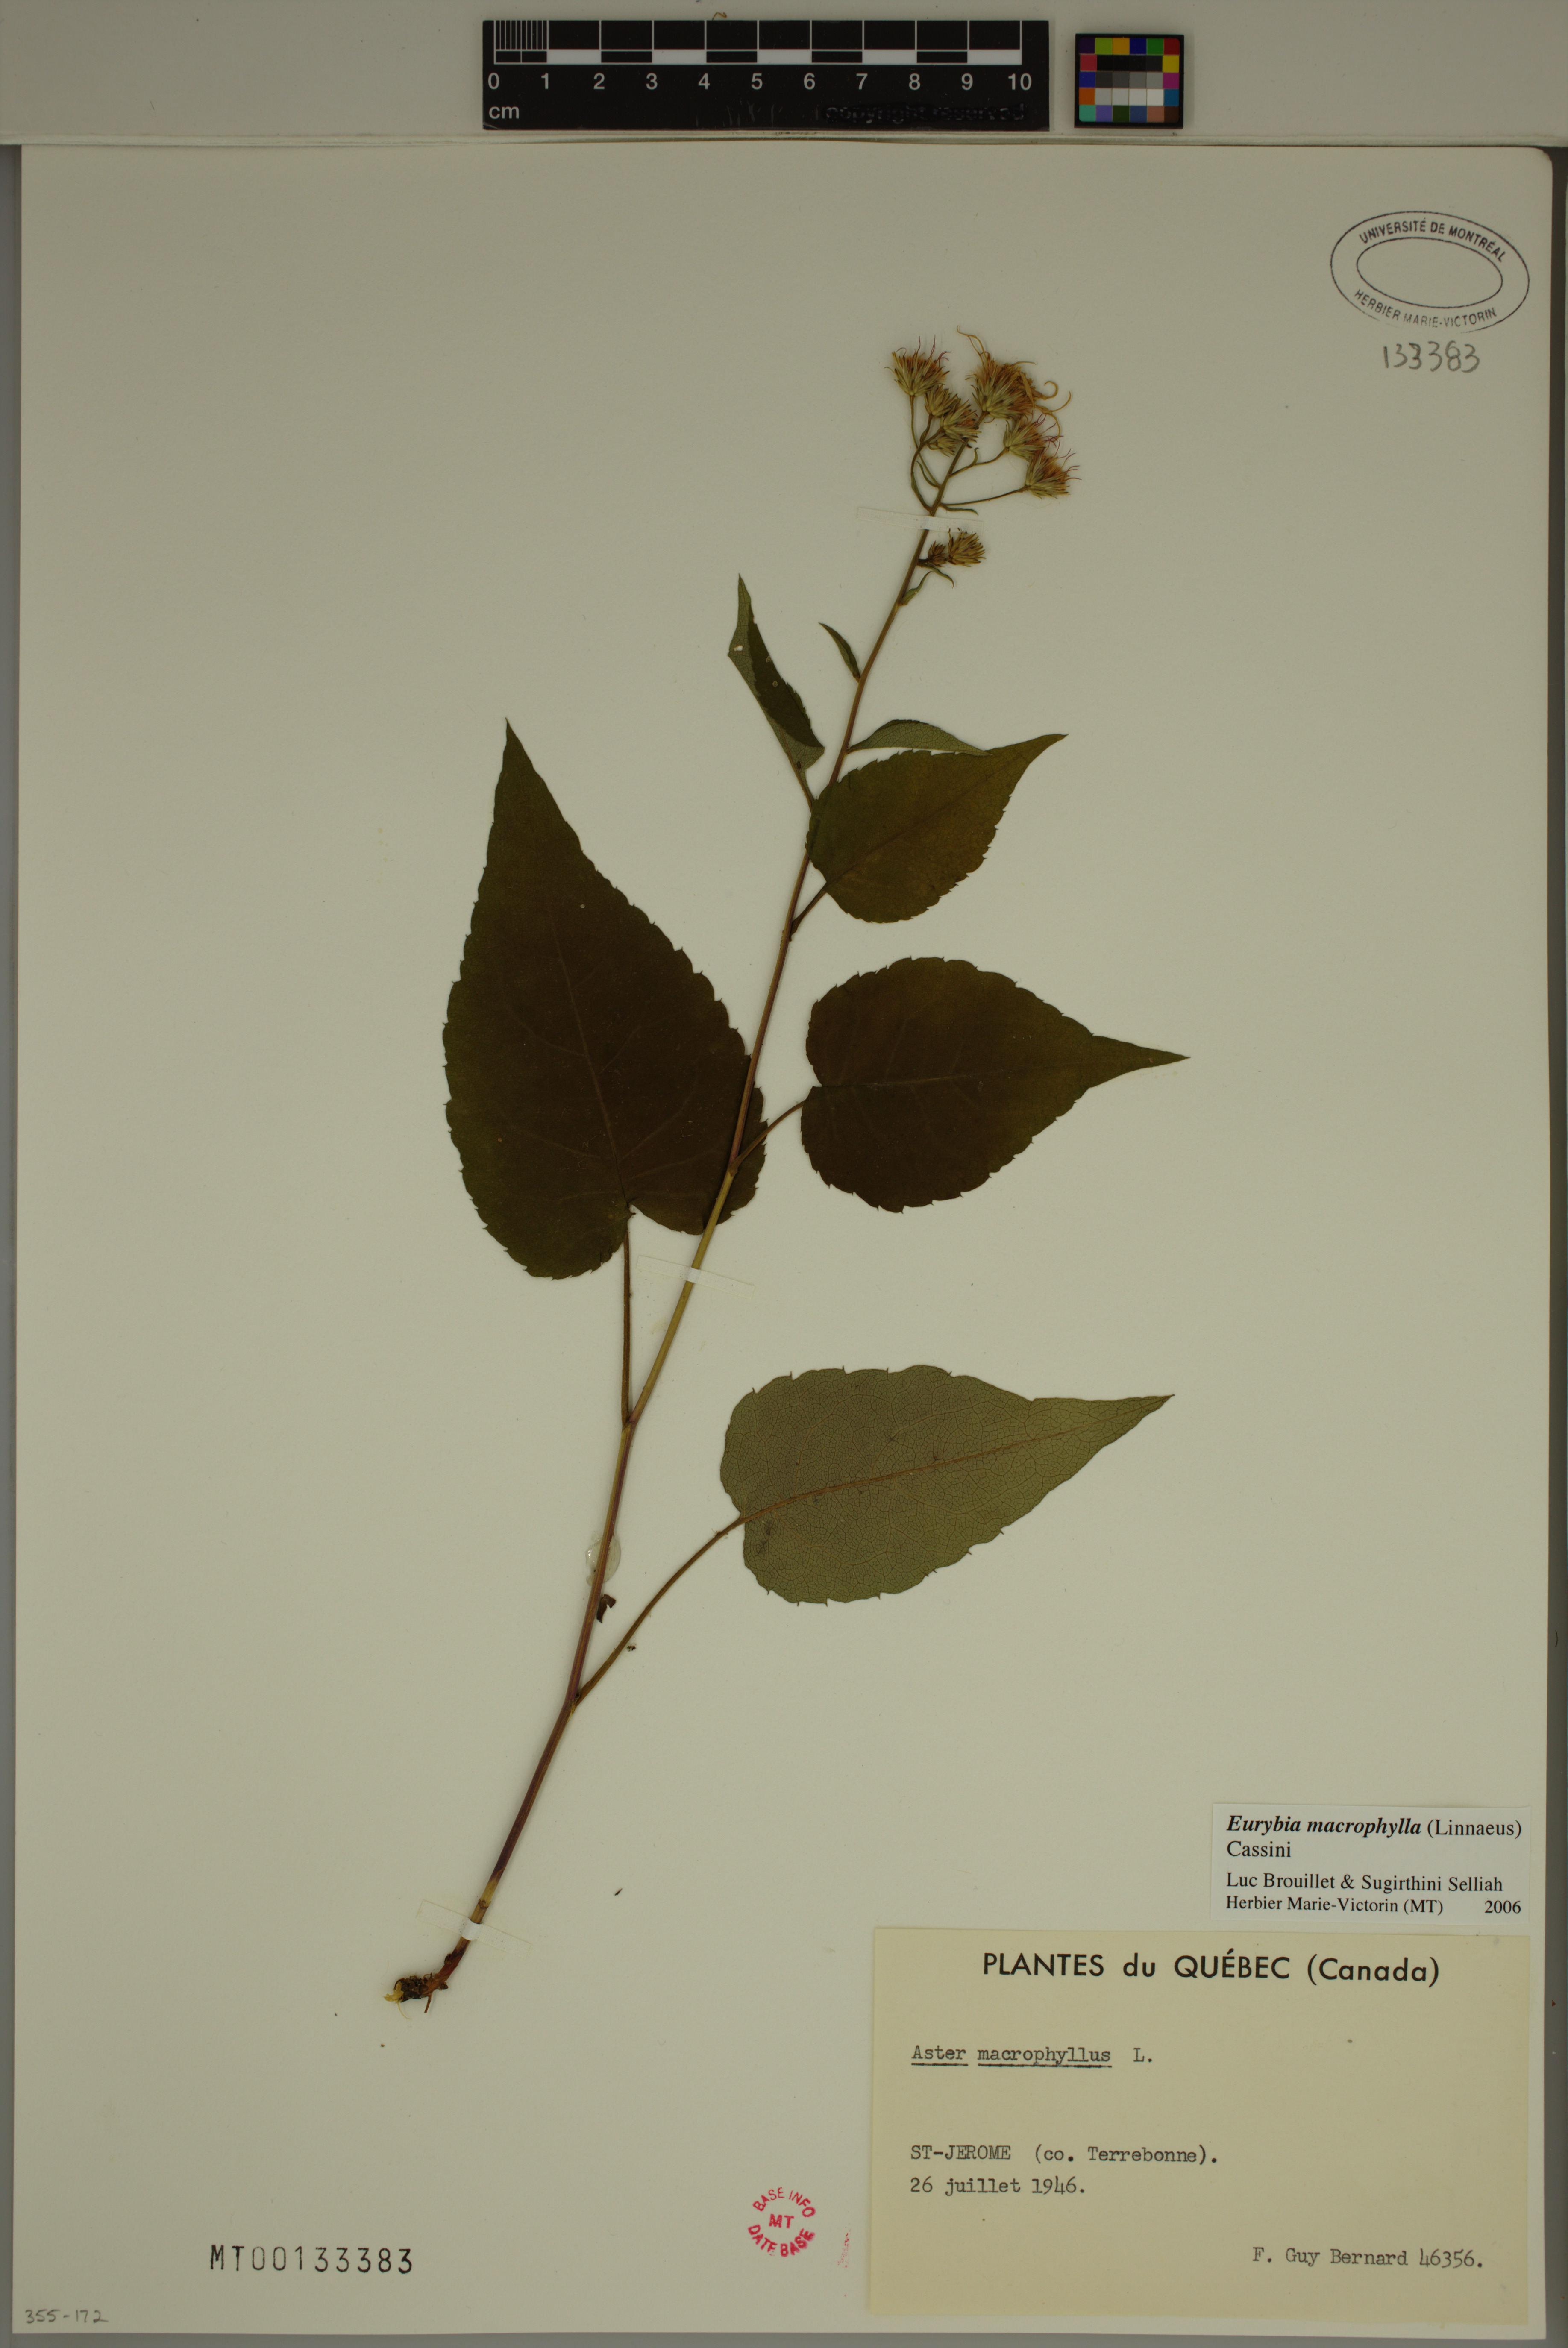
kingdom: Plantae
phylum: Tracheophyta
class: Magnoliopsida
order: Asterales
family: Asteraceae
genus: Eurybia
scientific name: Eurybia macrophylla
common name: Big-leaved aster
